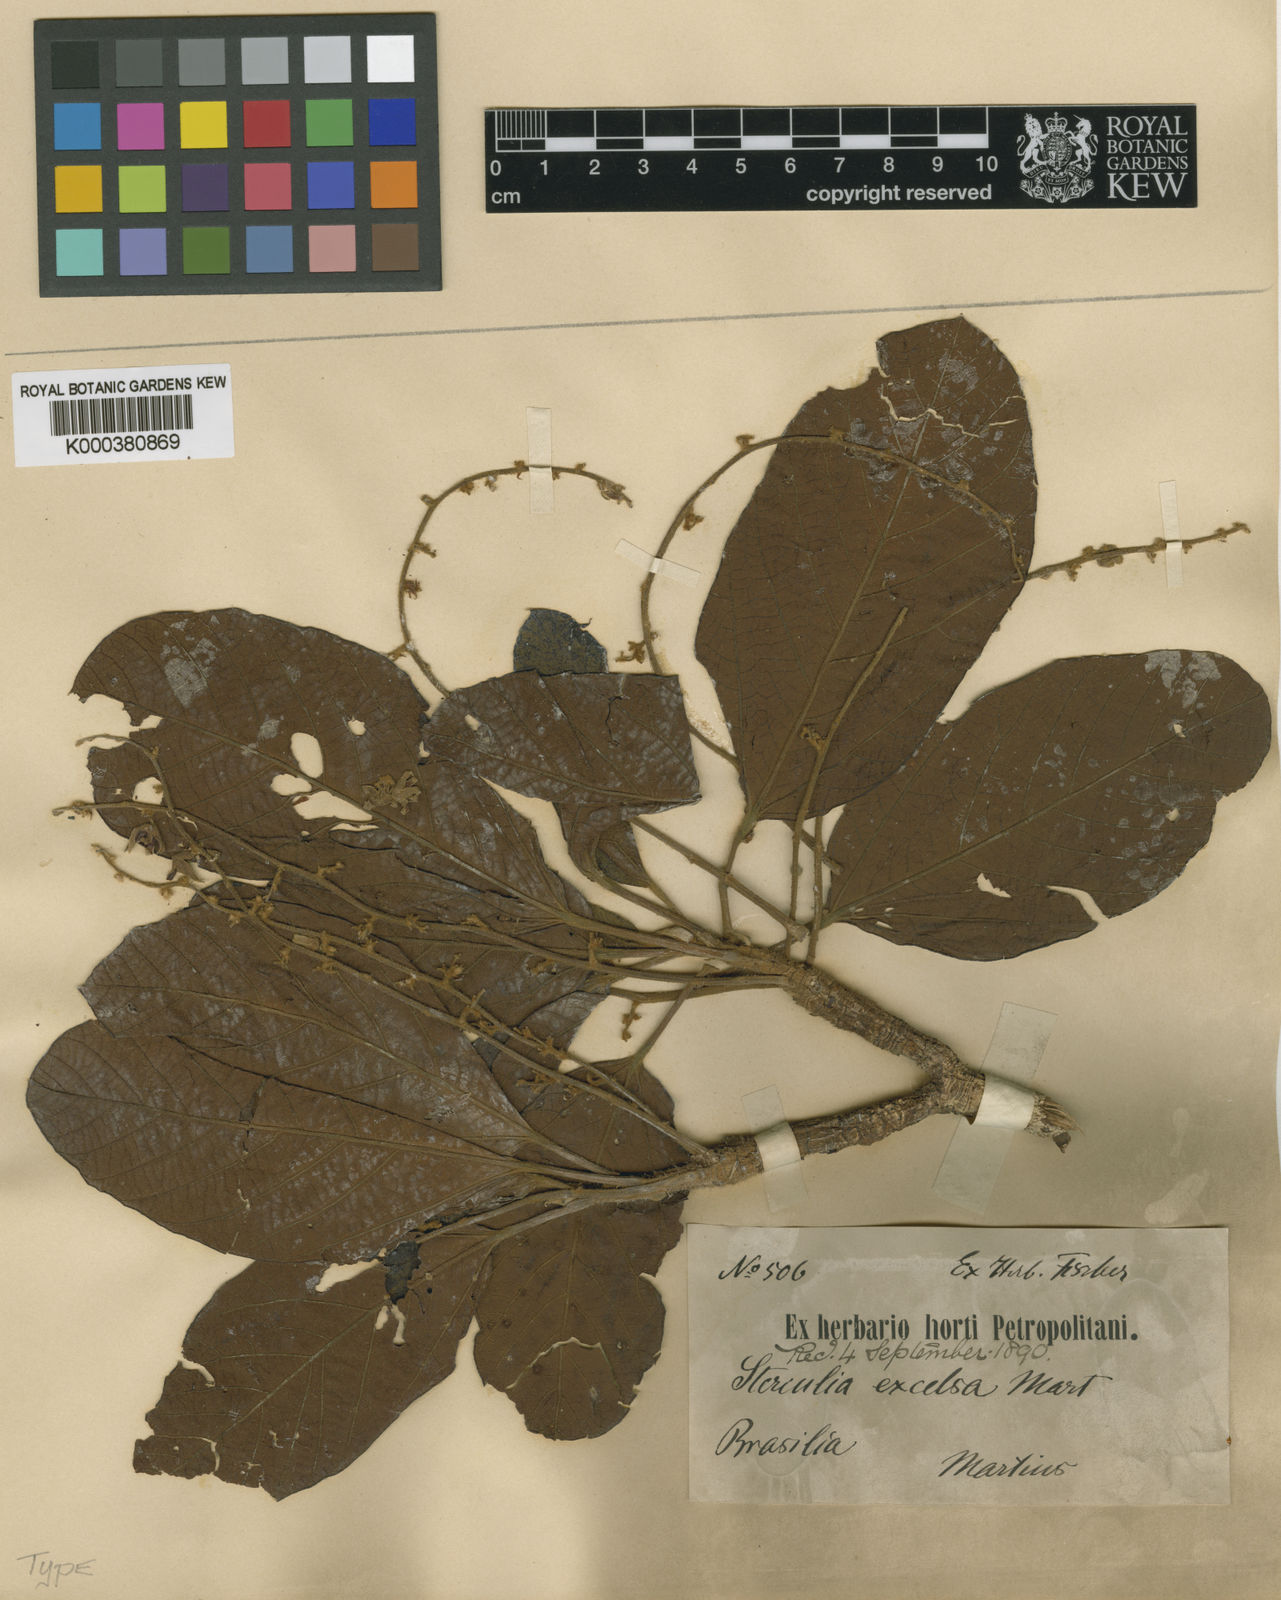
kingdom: Plantae
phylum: Tracheophyta
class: Magnoliopsida
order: Malvales
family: Malvaceae
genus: Sterculia
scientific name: Sterculia excelsa
